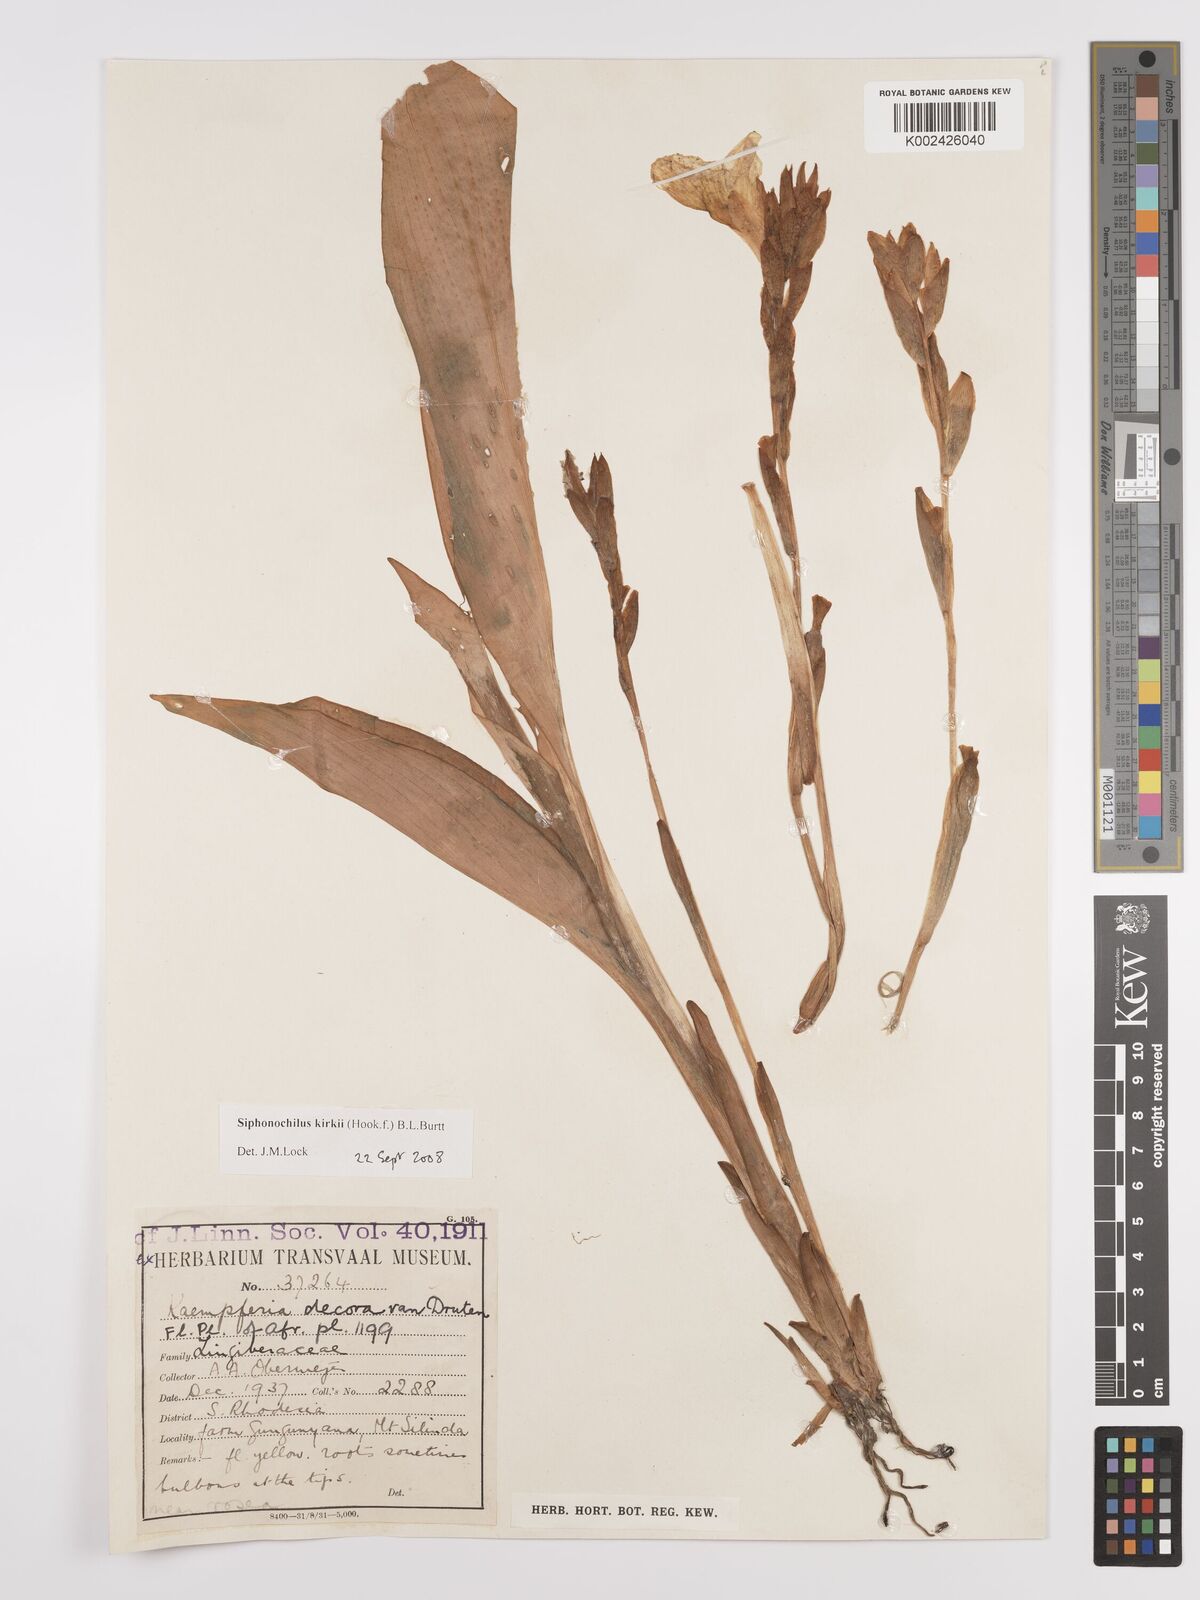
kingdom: Plantae
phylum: Tracheophyta
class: Liliopsida
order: Zingiberales
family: Zingiberaceae
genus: Siphonochilus
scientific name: Siphonochilus kirkii
